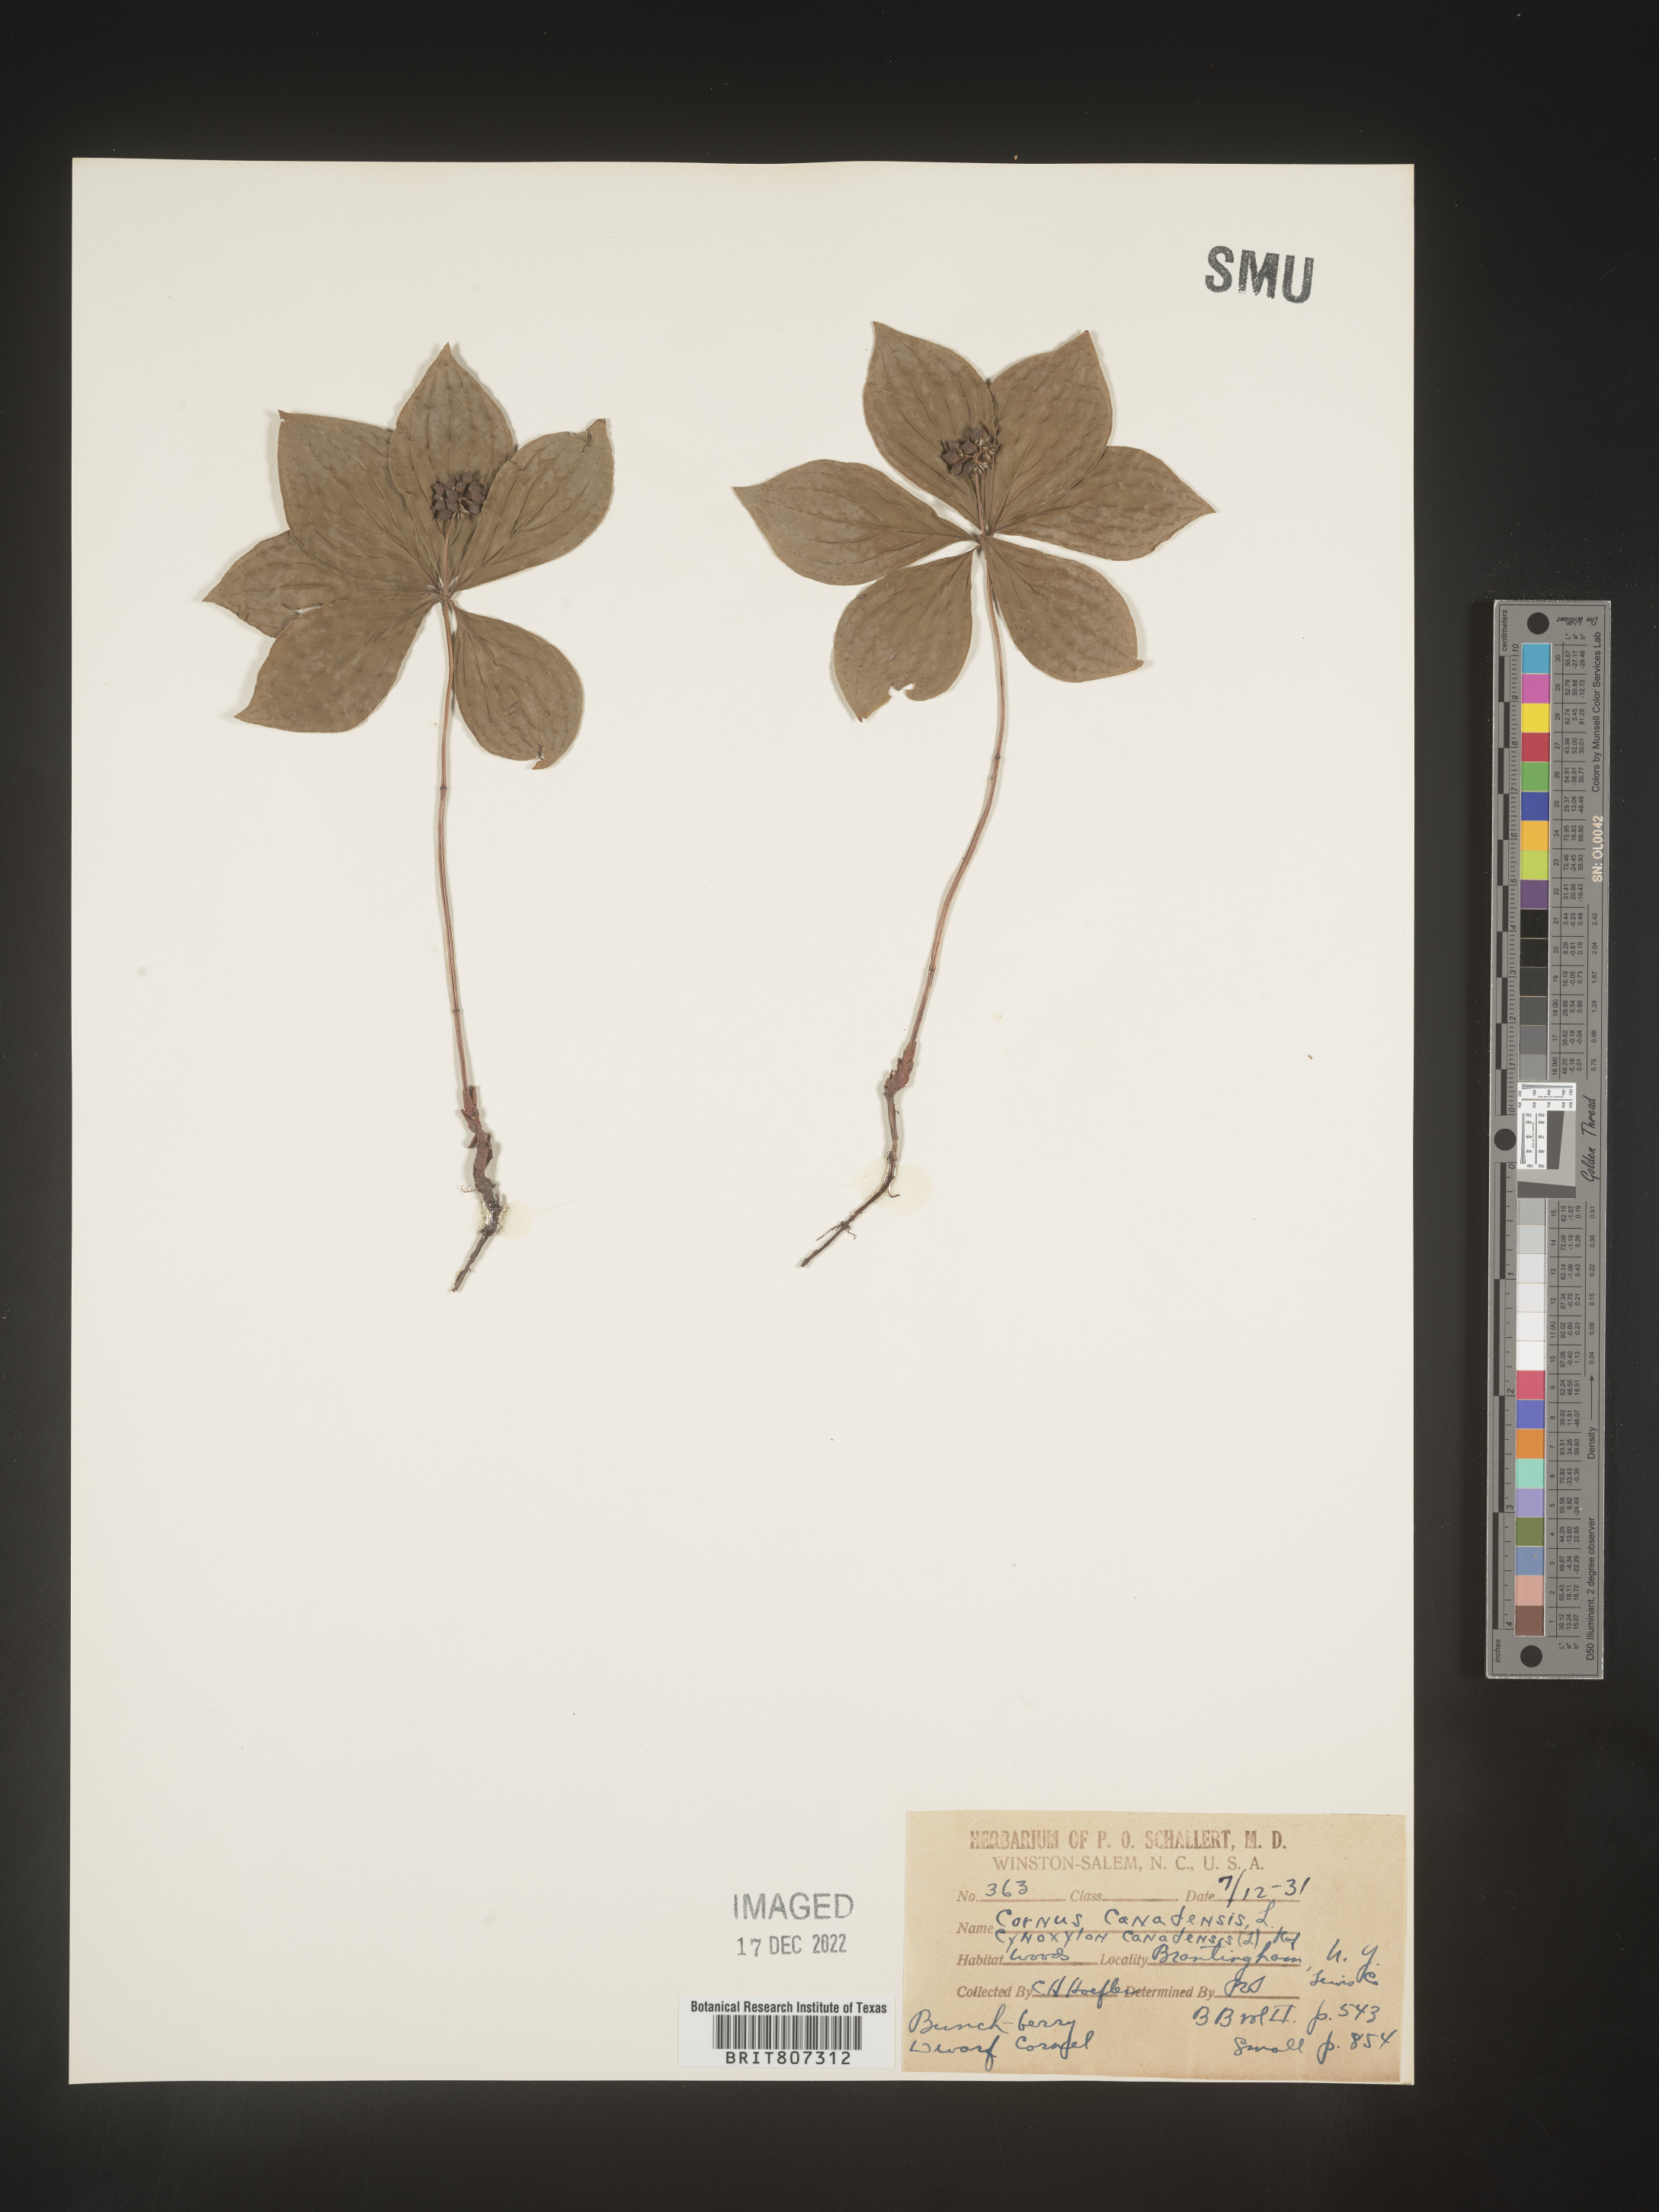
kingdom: Plantae
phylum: Tracheophyta
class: Magnoliopsida
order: Cornales
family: Cornaceae
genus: Cornus
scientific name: Cornus canadensis
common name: Creeping dogwood
